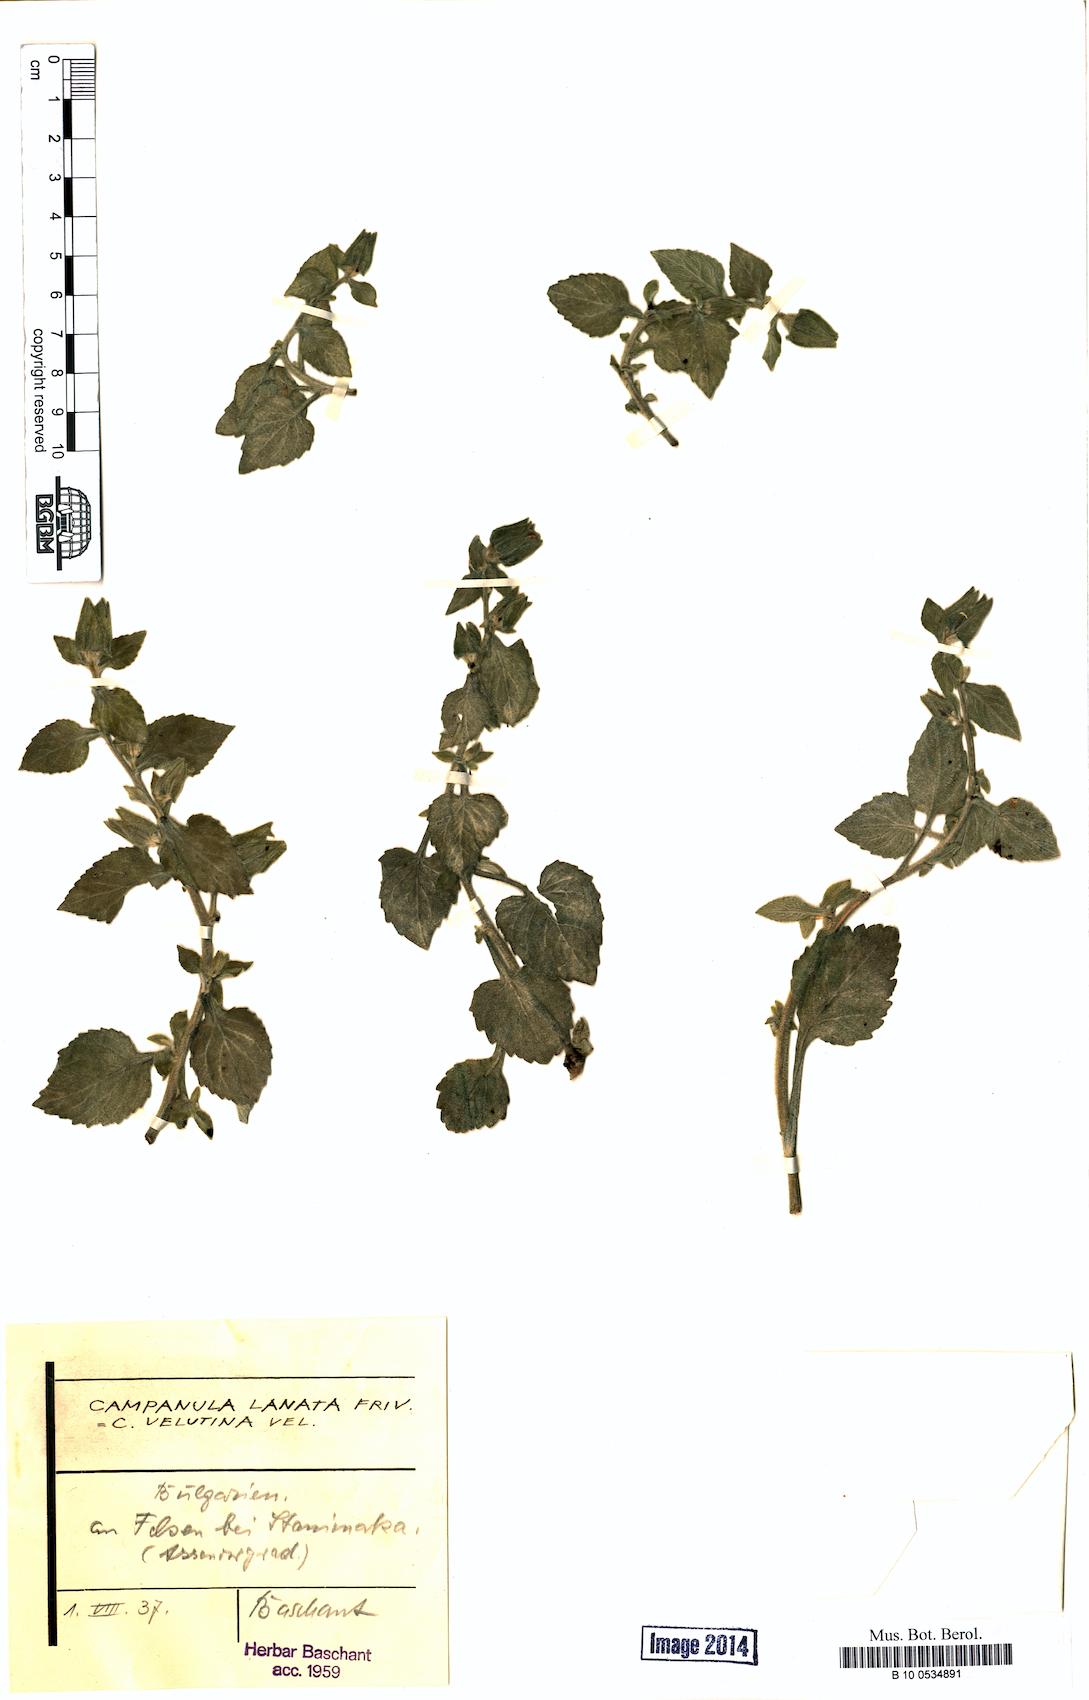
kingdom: Plantae
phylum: Tracheophyta
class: Magnoliopsida
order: Asterales
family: Campanulaceae
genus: Campanula
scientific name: Campanula lanata
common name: Woolly bellflower
